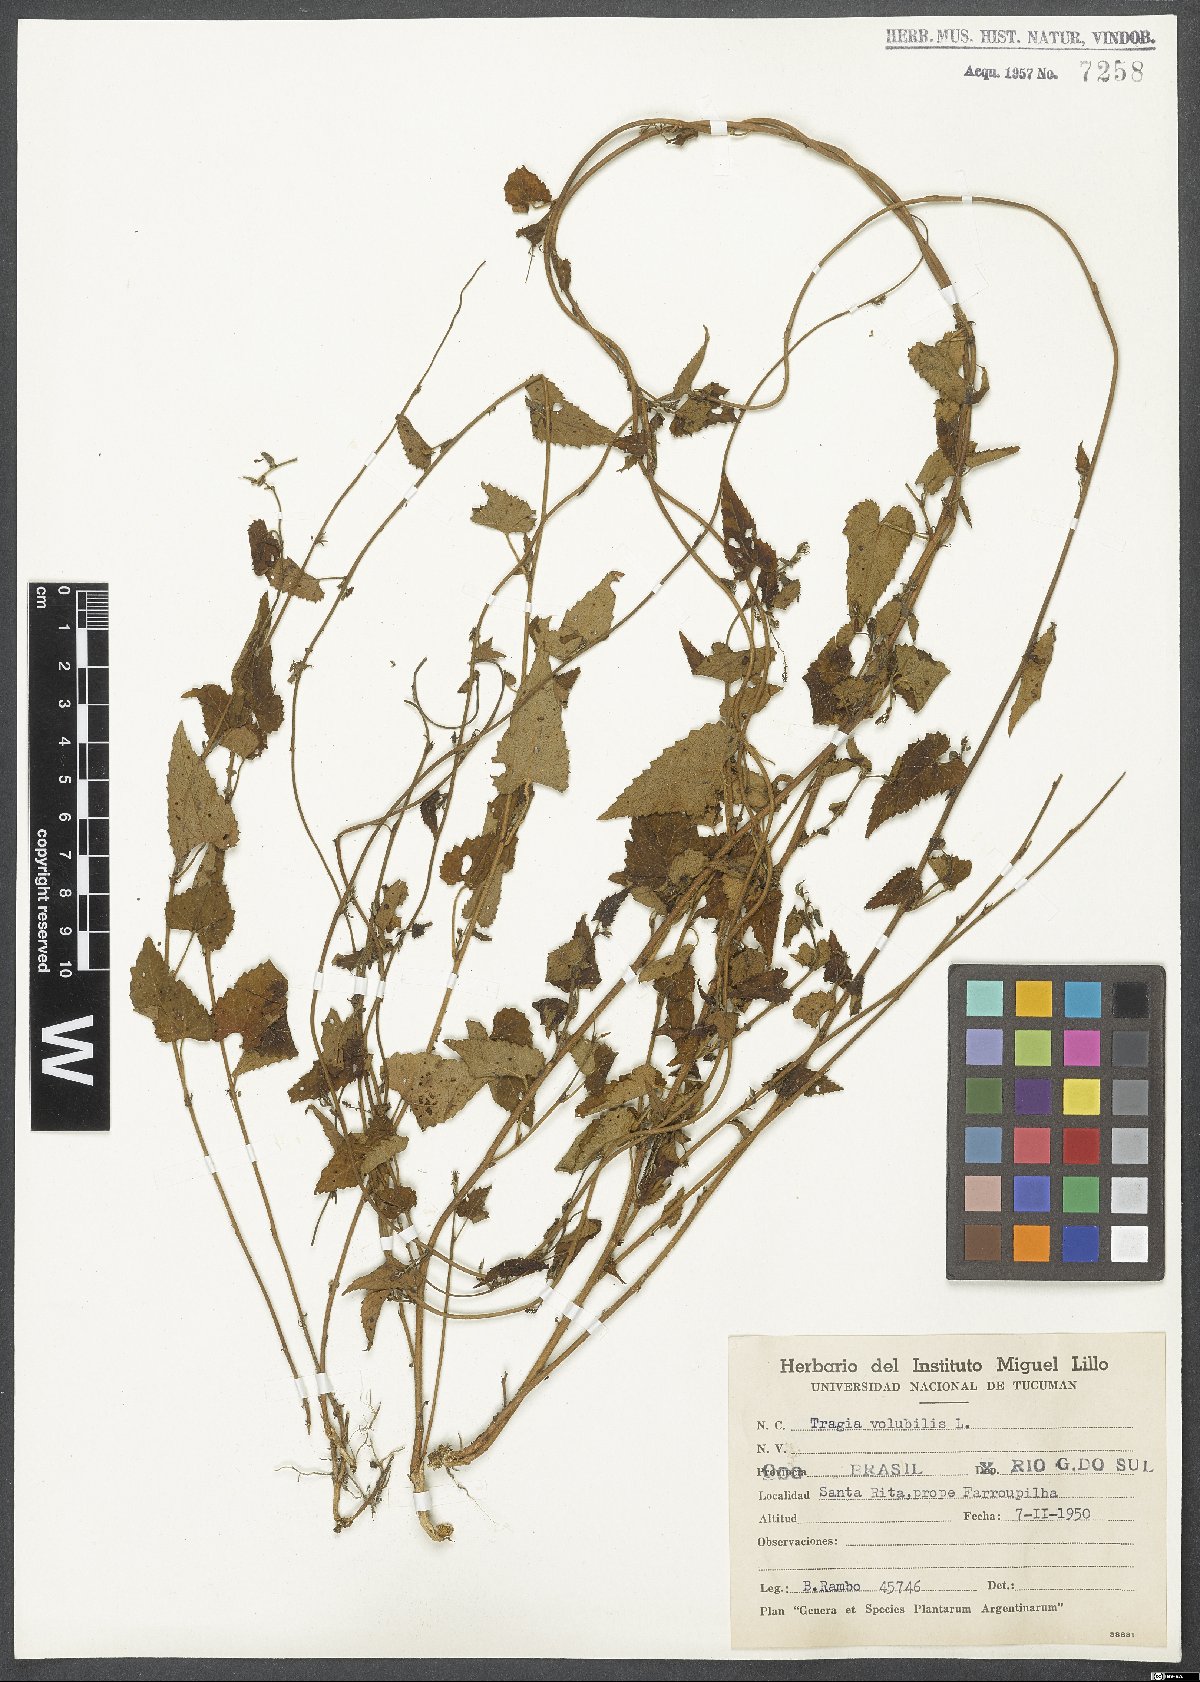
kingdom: Plantae
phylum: Tracheophyta
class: Magnoliopsida
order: Malpighiales
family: Euphorbiaceae
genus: Tragia
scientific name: Tragia volubilis
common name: Twining cow-itch
